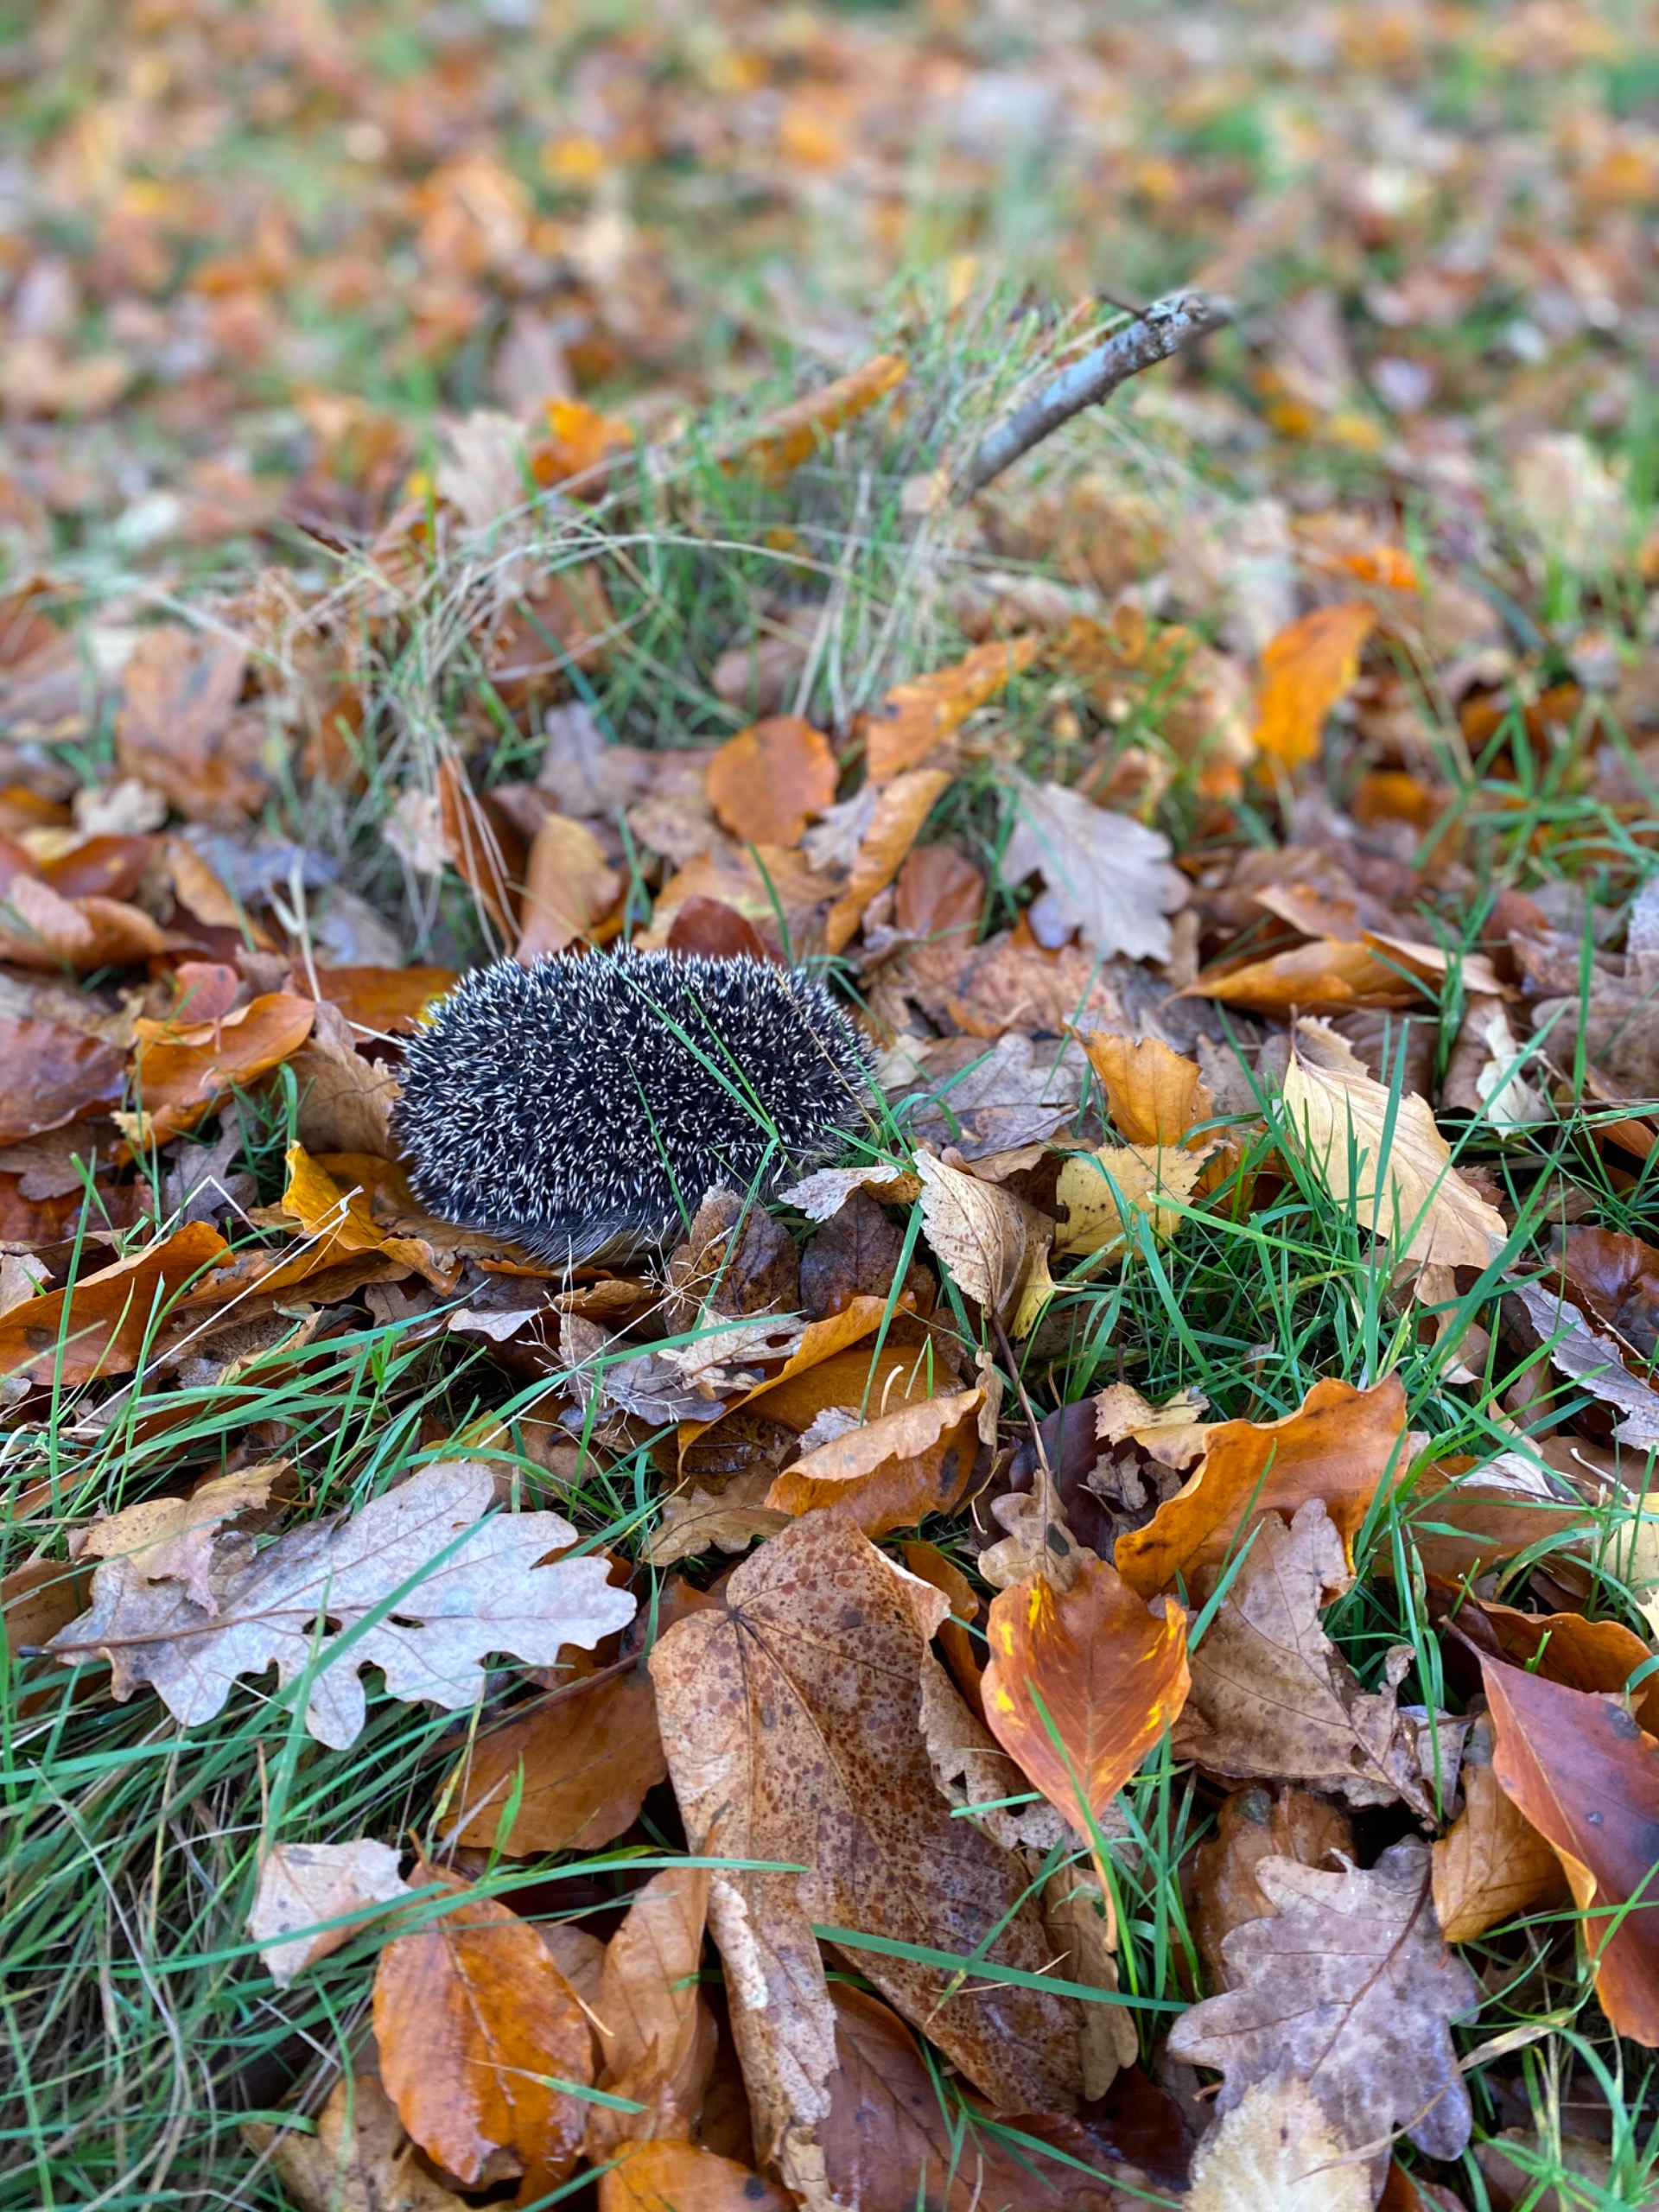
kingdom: Animalia
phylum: Chordata
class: Mammalia
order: Erinaceomorpha
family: Erinaceidae
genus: Erinaceus
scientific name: Erinaceus europaeus
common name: Pindsvin
